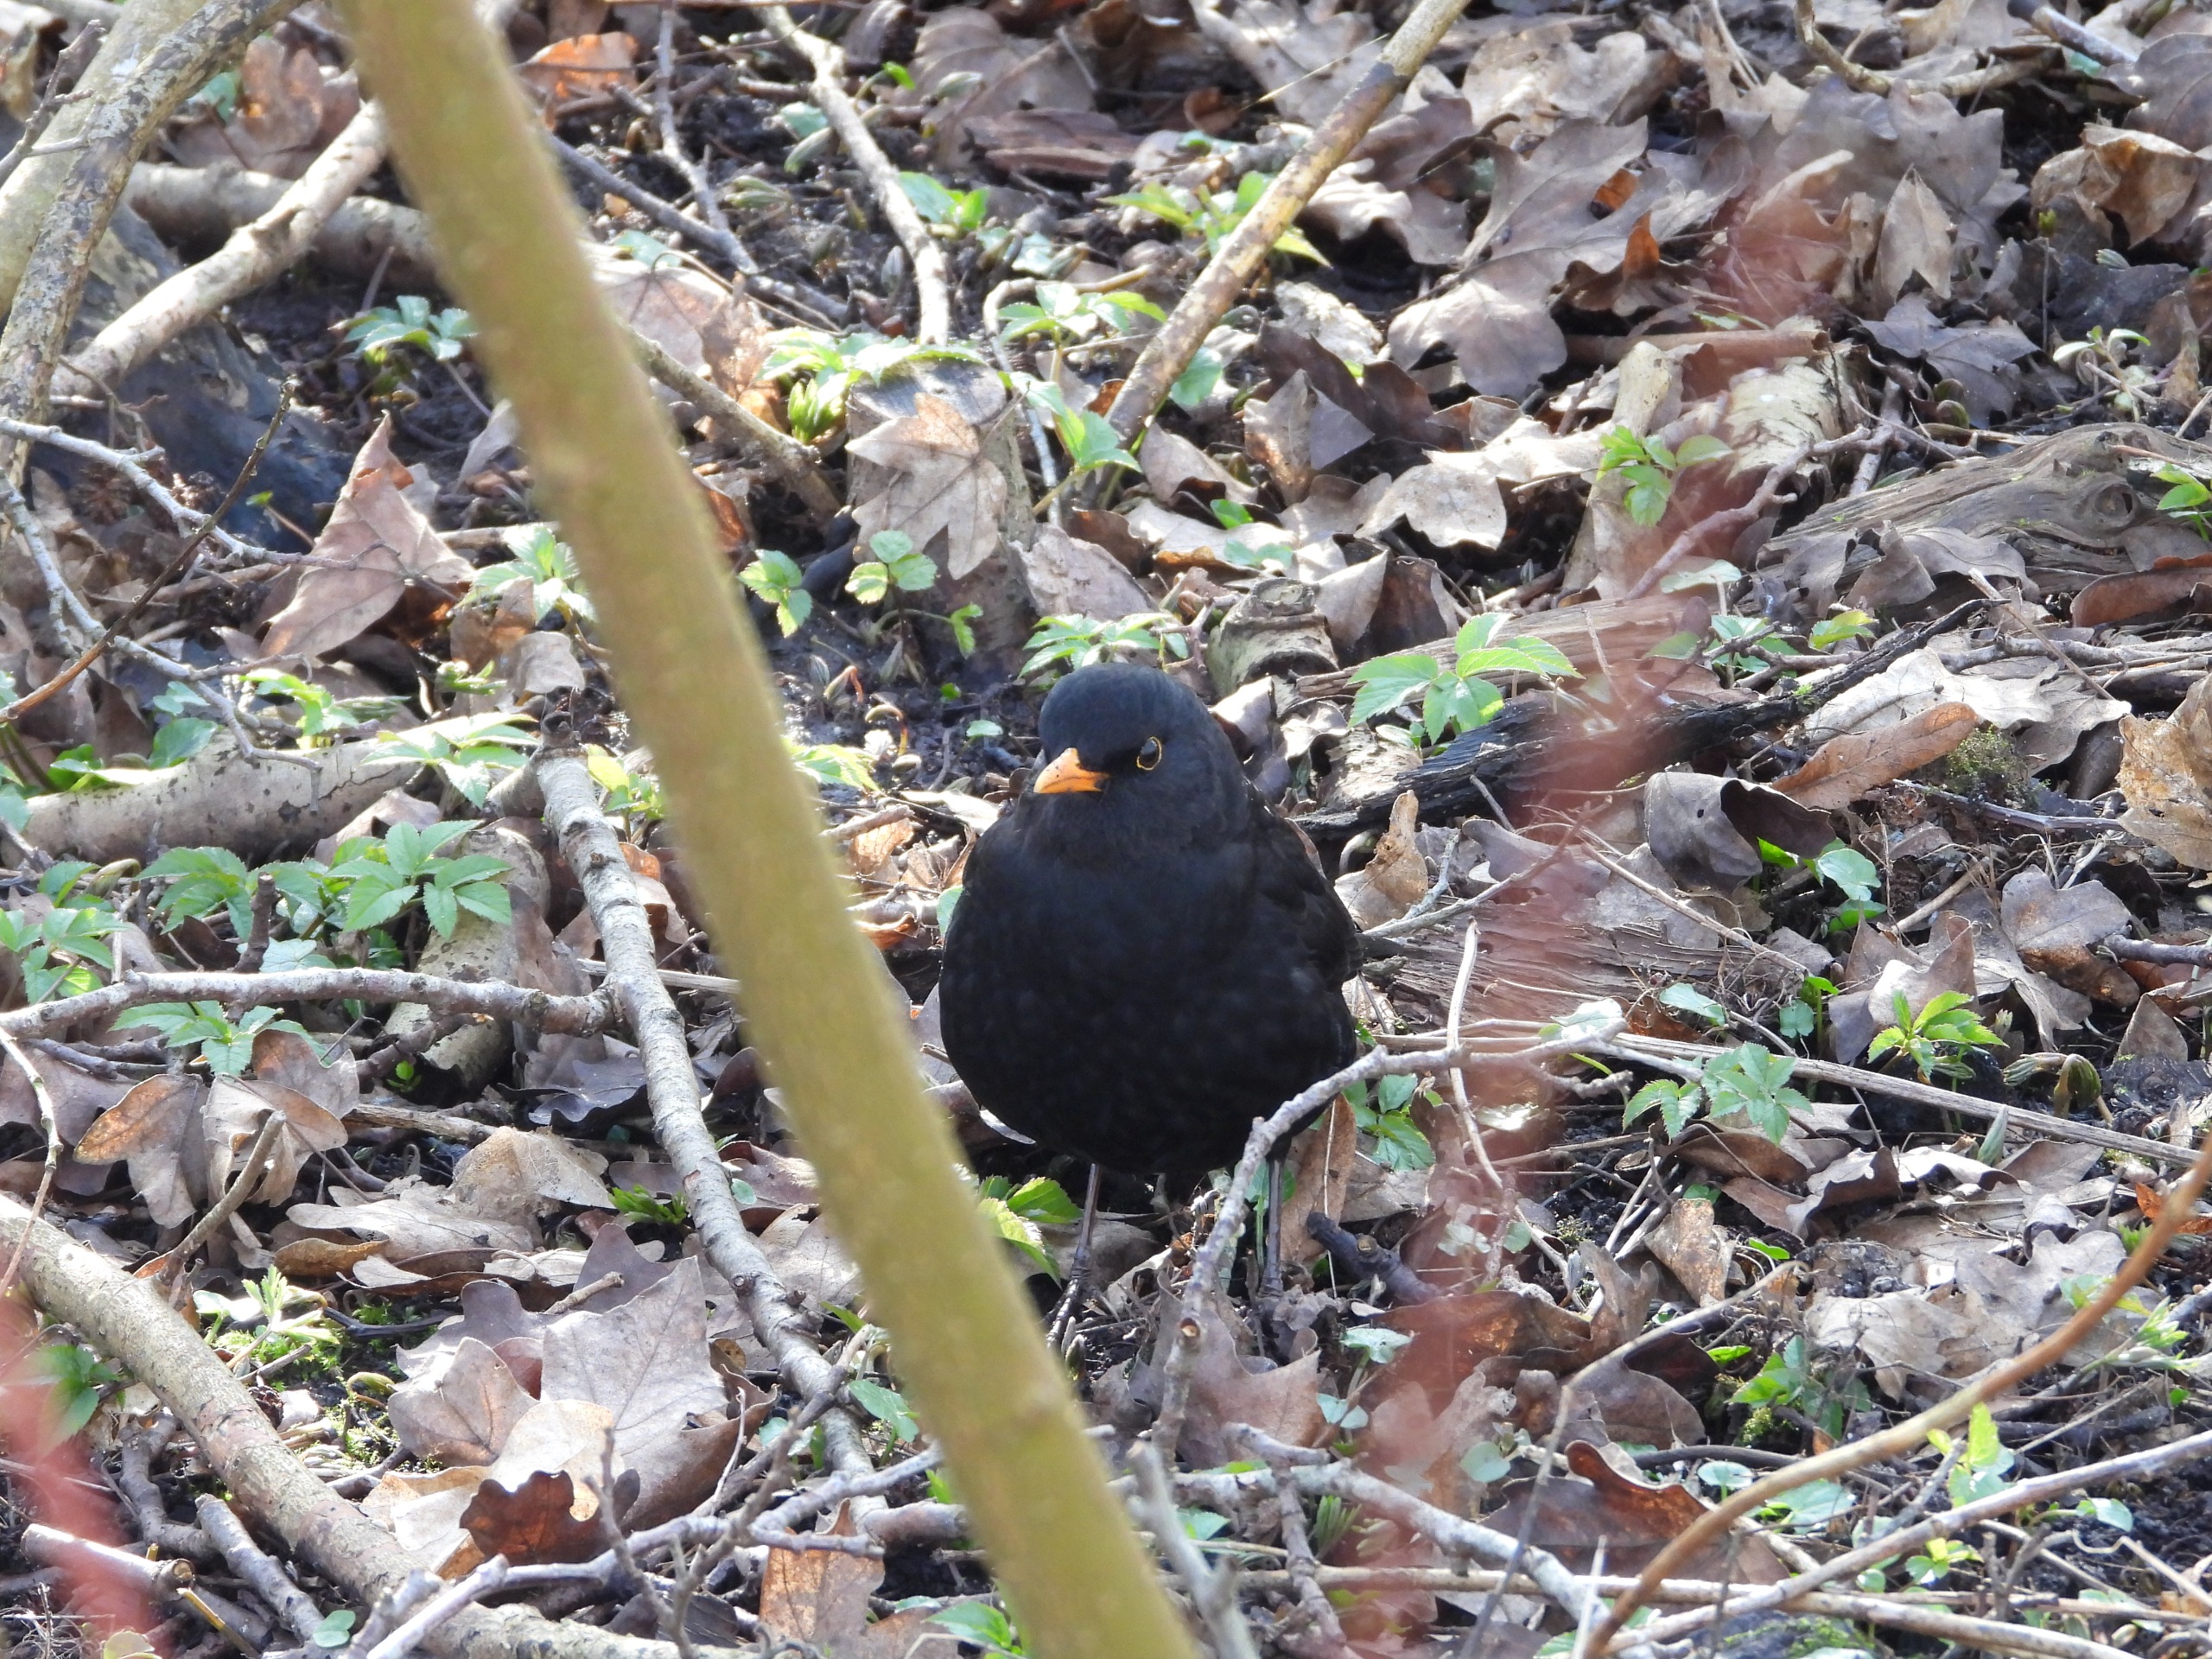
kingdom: Animalia
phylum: Chordata
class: Aves
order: Passeriformes
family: Turdidae
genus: Turdus
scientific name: Turdus merula
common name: Solsort
